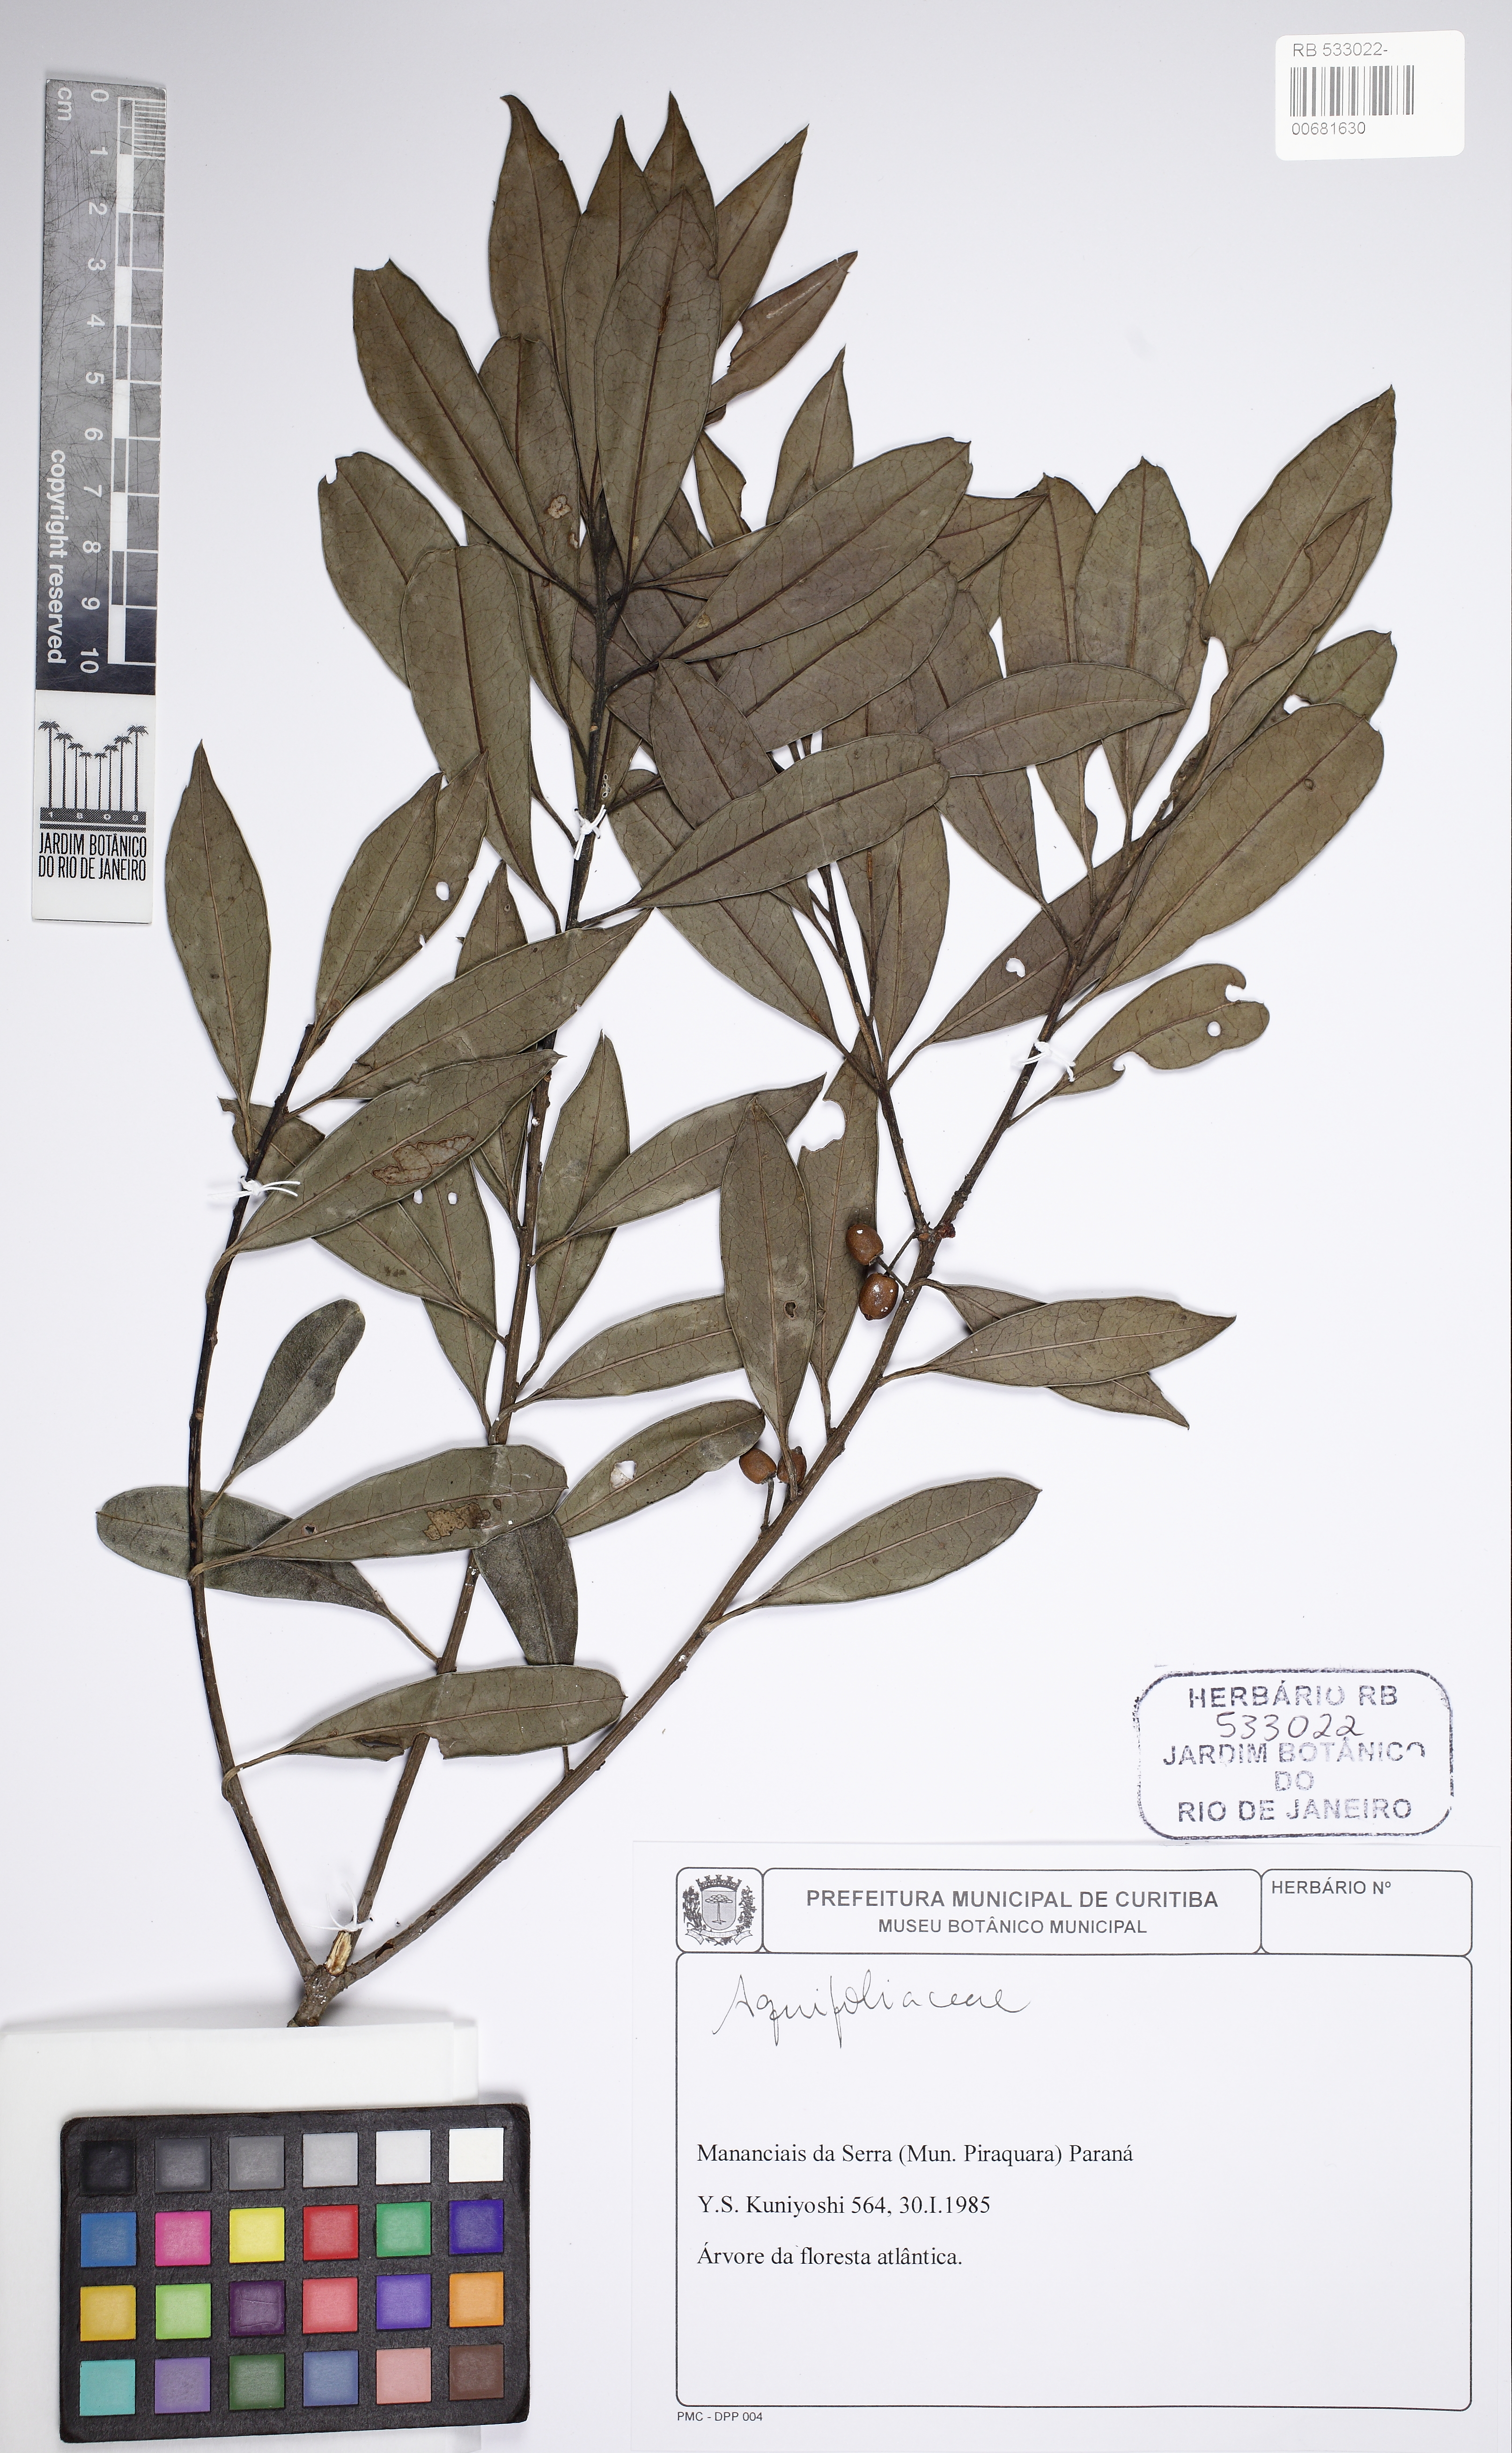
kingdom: Plantae
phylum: Tracheophyta
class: Magnoliopsida
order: Aquifoliales
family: Aquifoliaceae
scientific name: Aquifoliaceae
